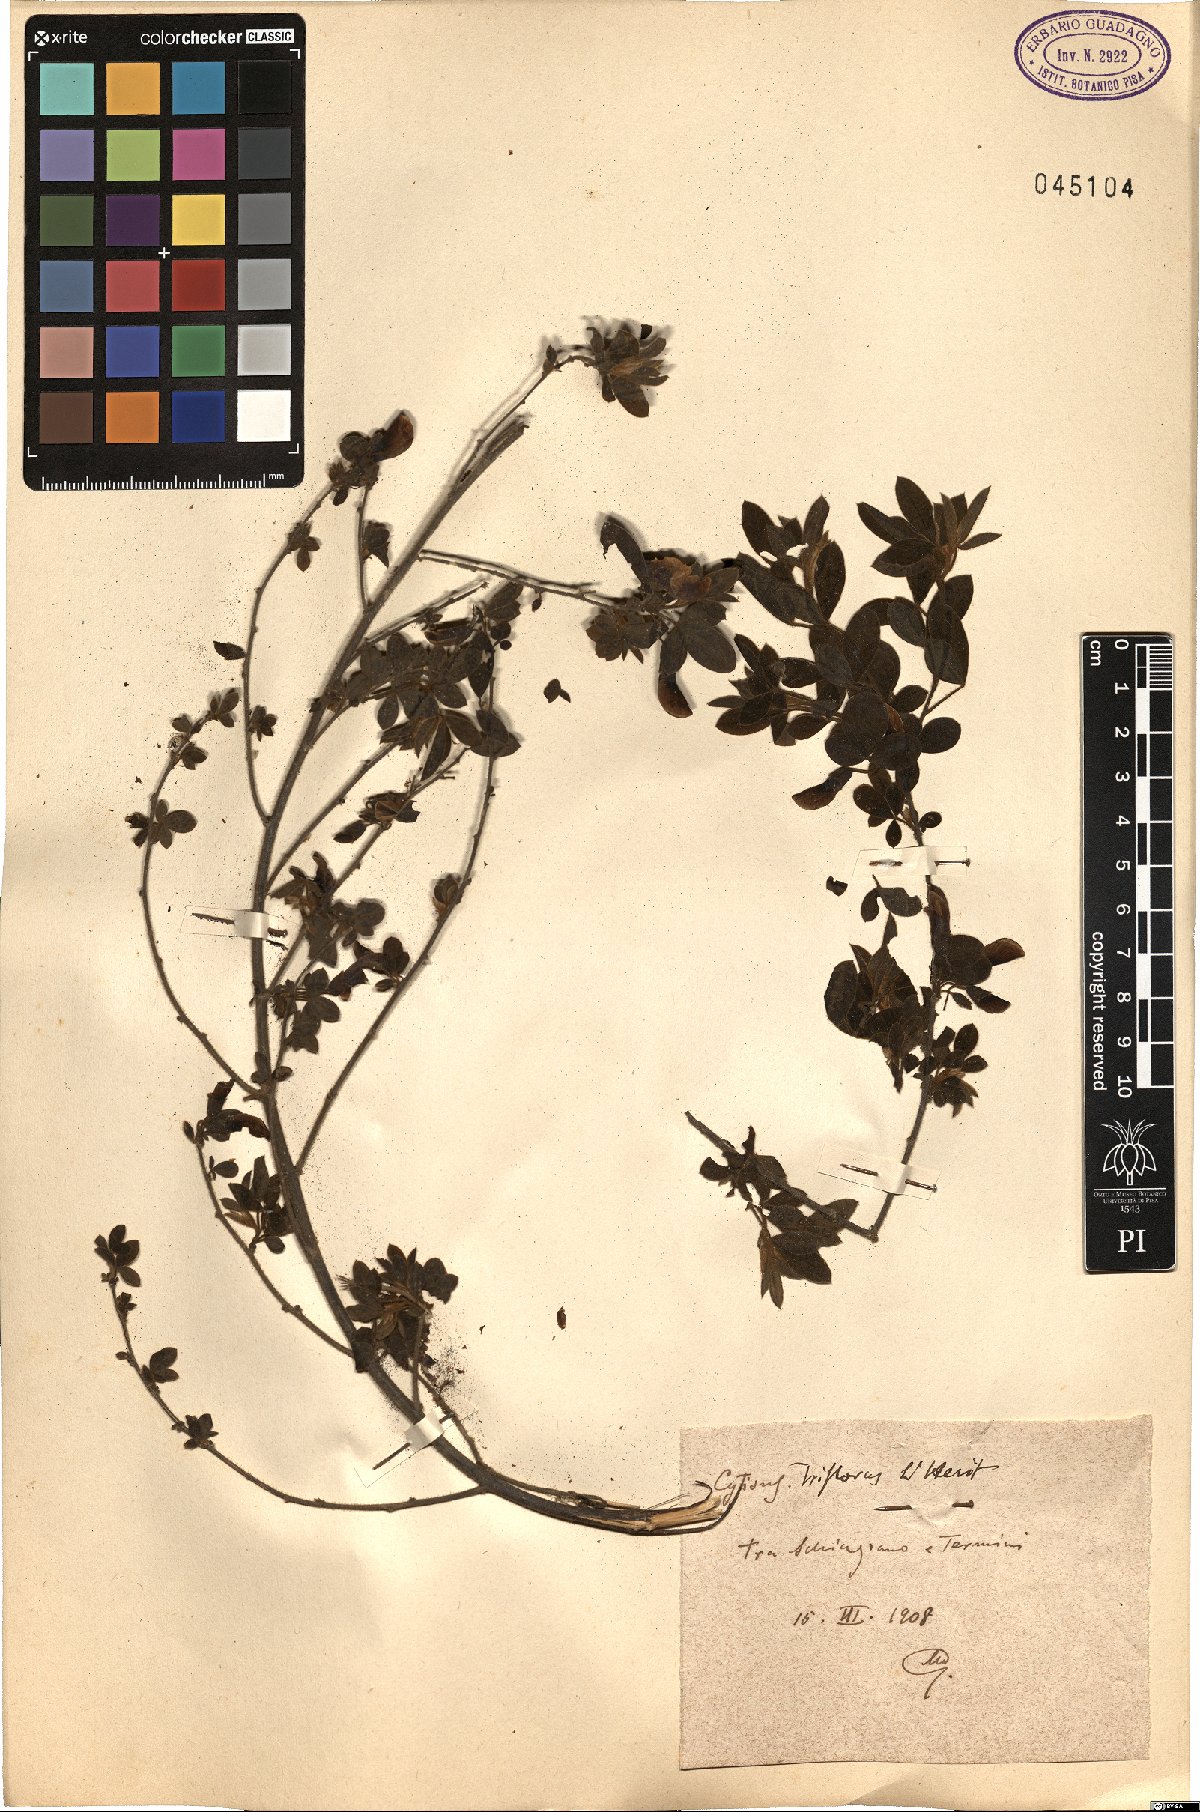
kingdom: Plantae
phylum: Tracheophyta
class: Magnoliopsida
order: Fabales
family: Fabaceae
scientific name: Fabaceae
